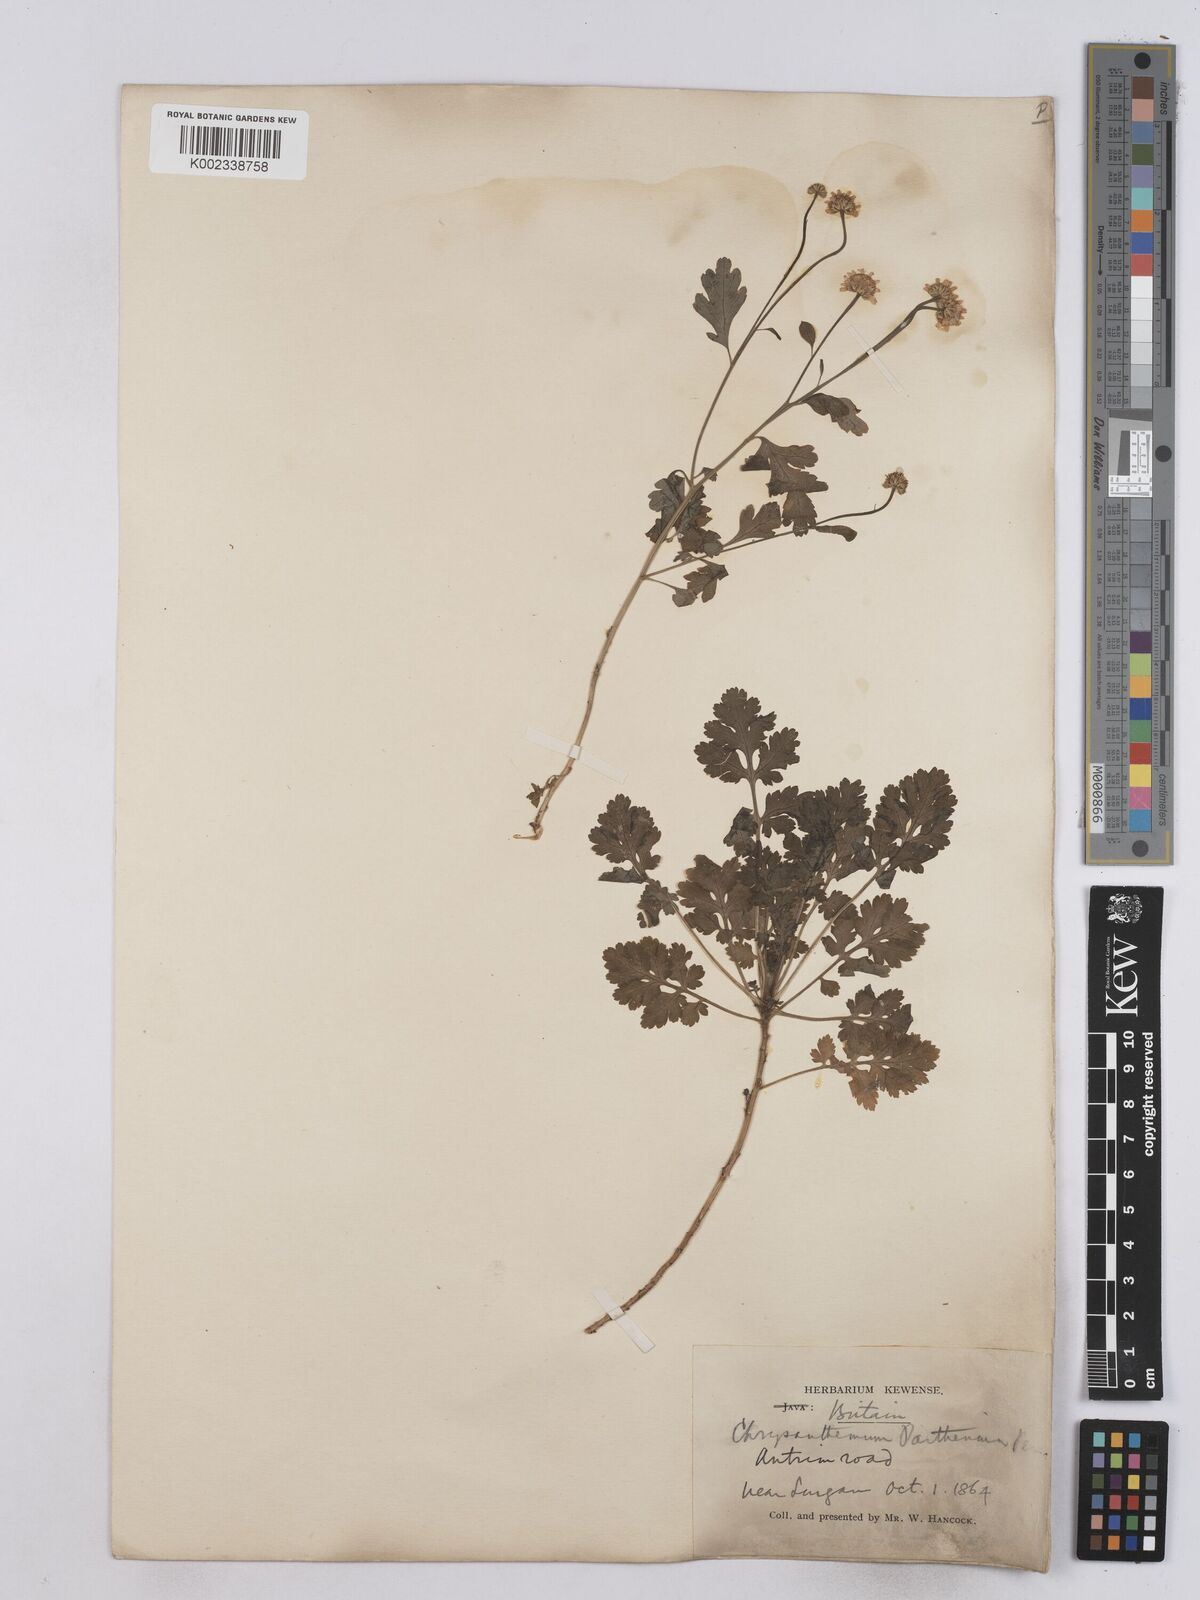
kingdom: Plantae
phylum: Tracheophyta
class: Magnoliopsida
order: Asterales
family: Asteraceae
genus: Tanacetum
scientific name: Tanacetum parthenium
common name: Feverfew
